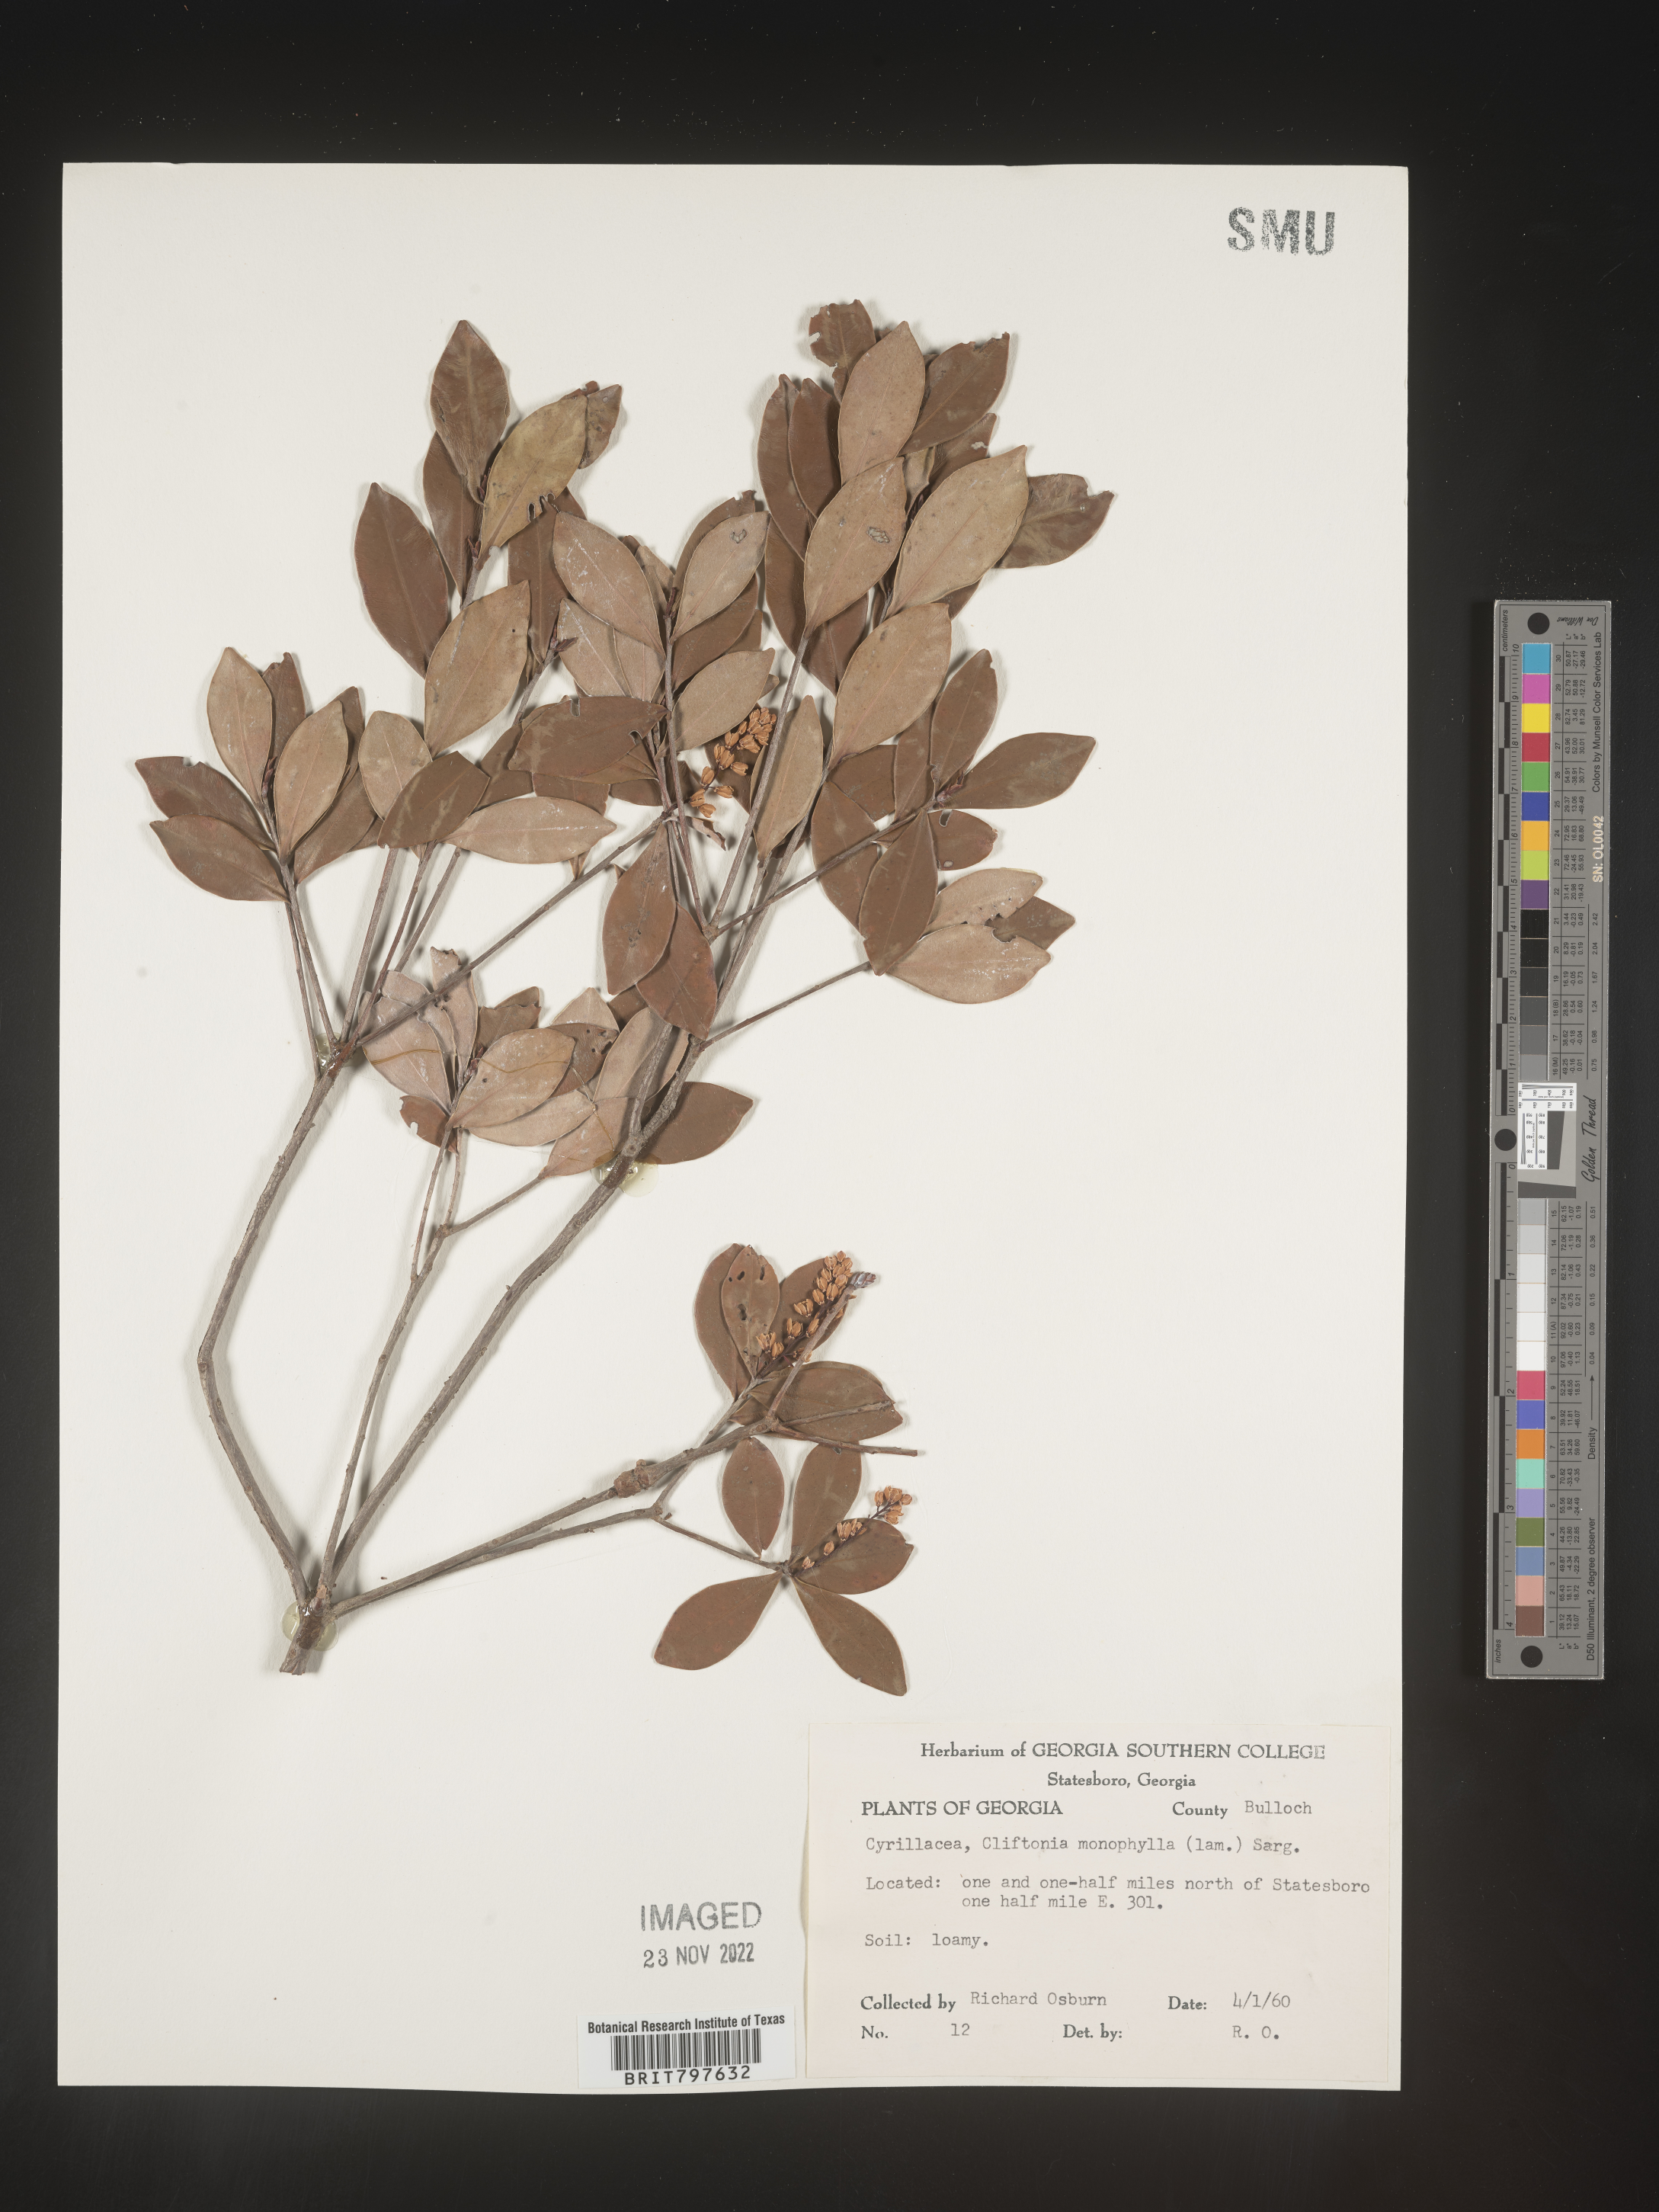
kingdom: Plantae
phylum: Tracheophyta
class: Magnoliopsida
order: Ericales
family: Cyrillaceae
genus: Cliftonia
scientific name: Cliftonia monophylla
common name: Titi
